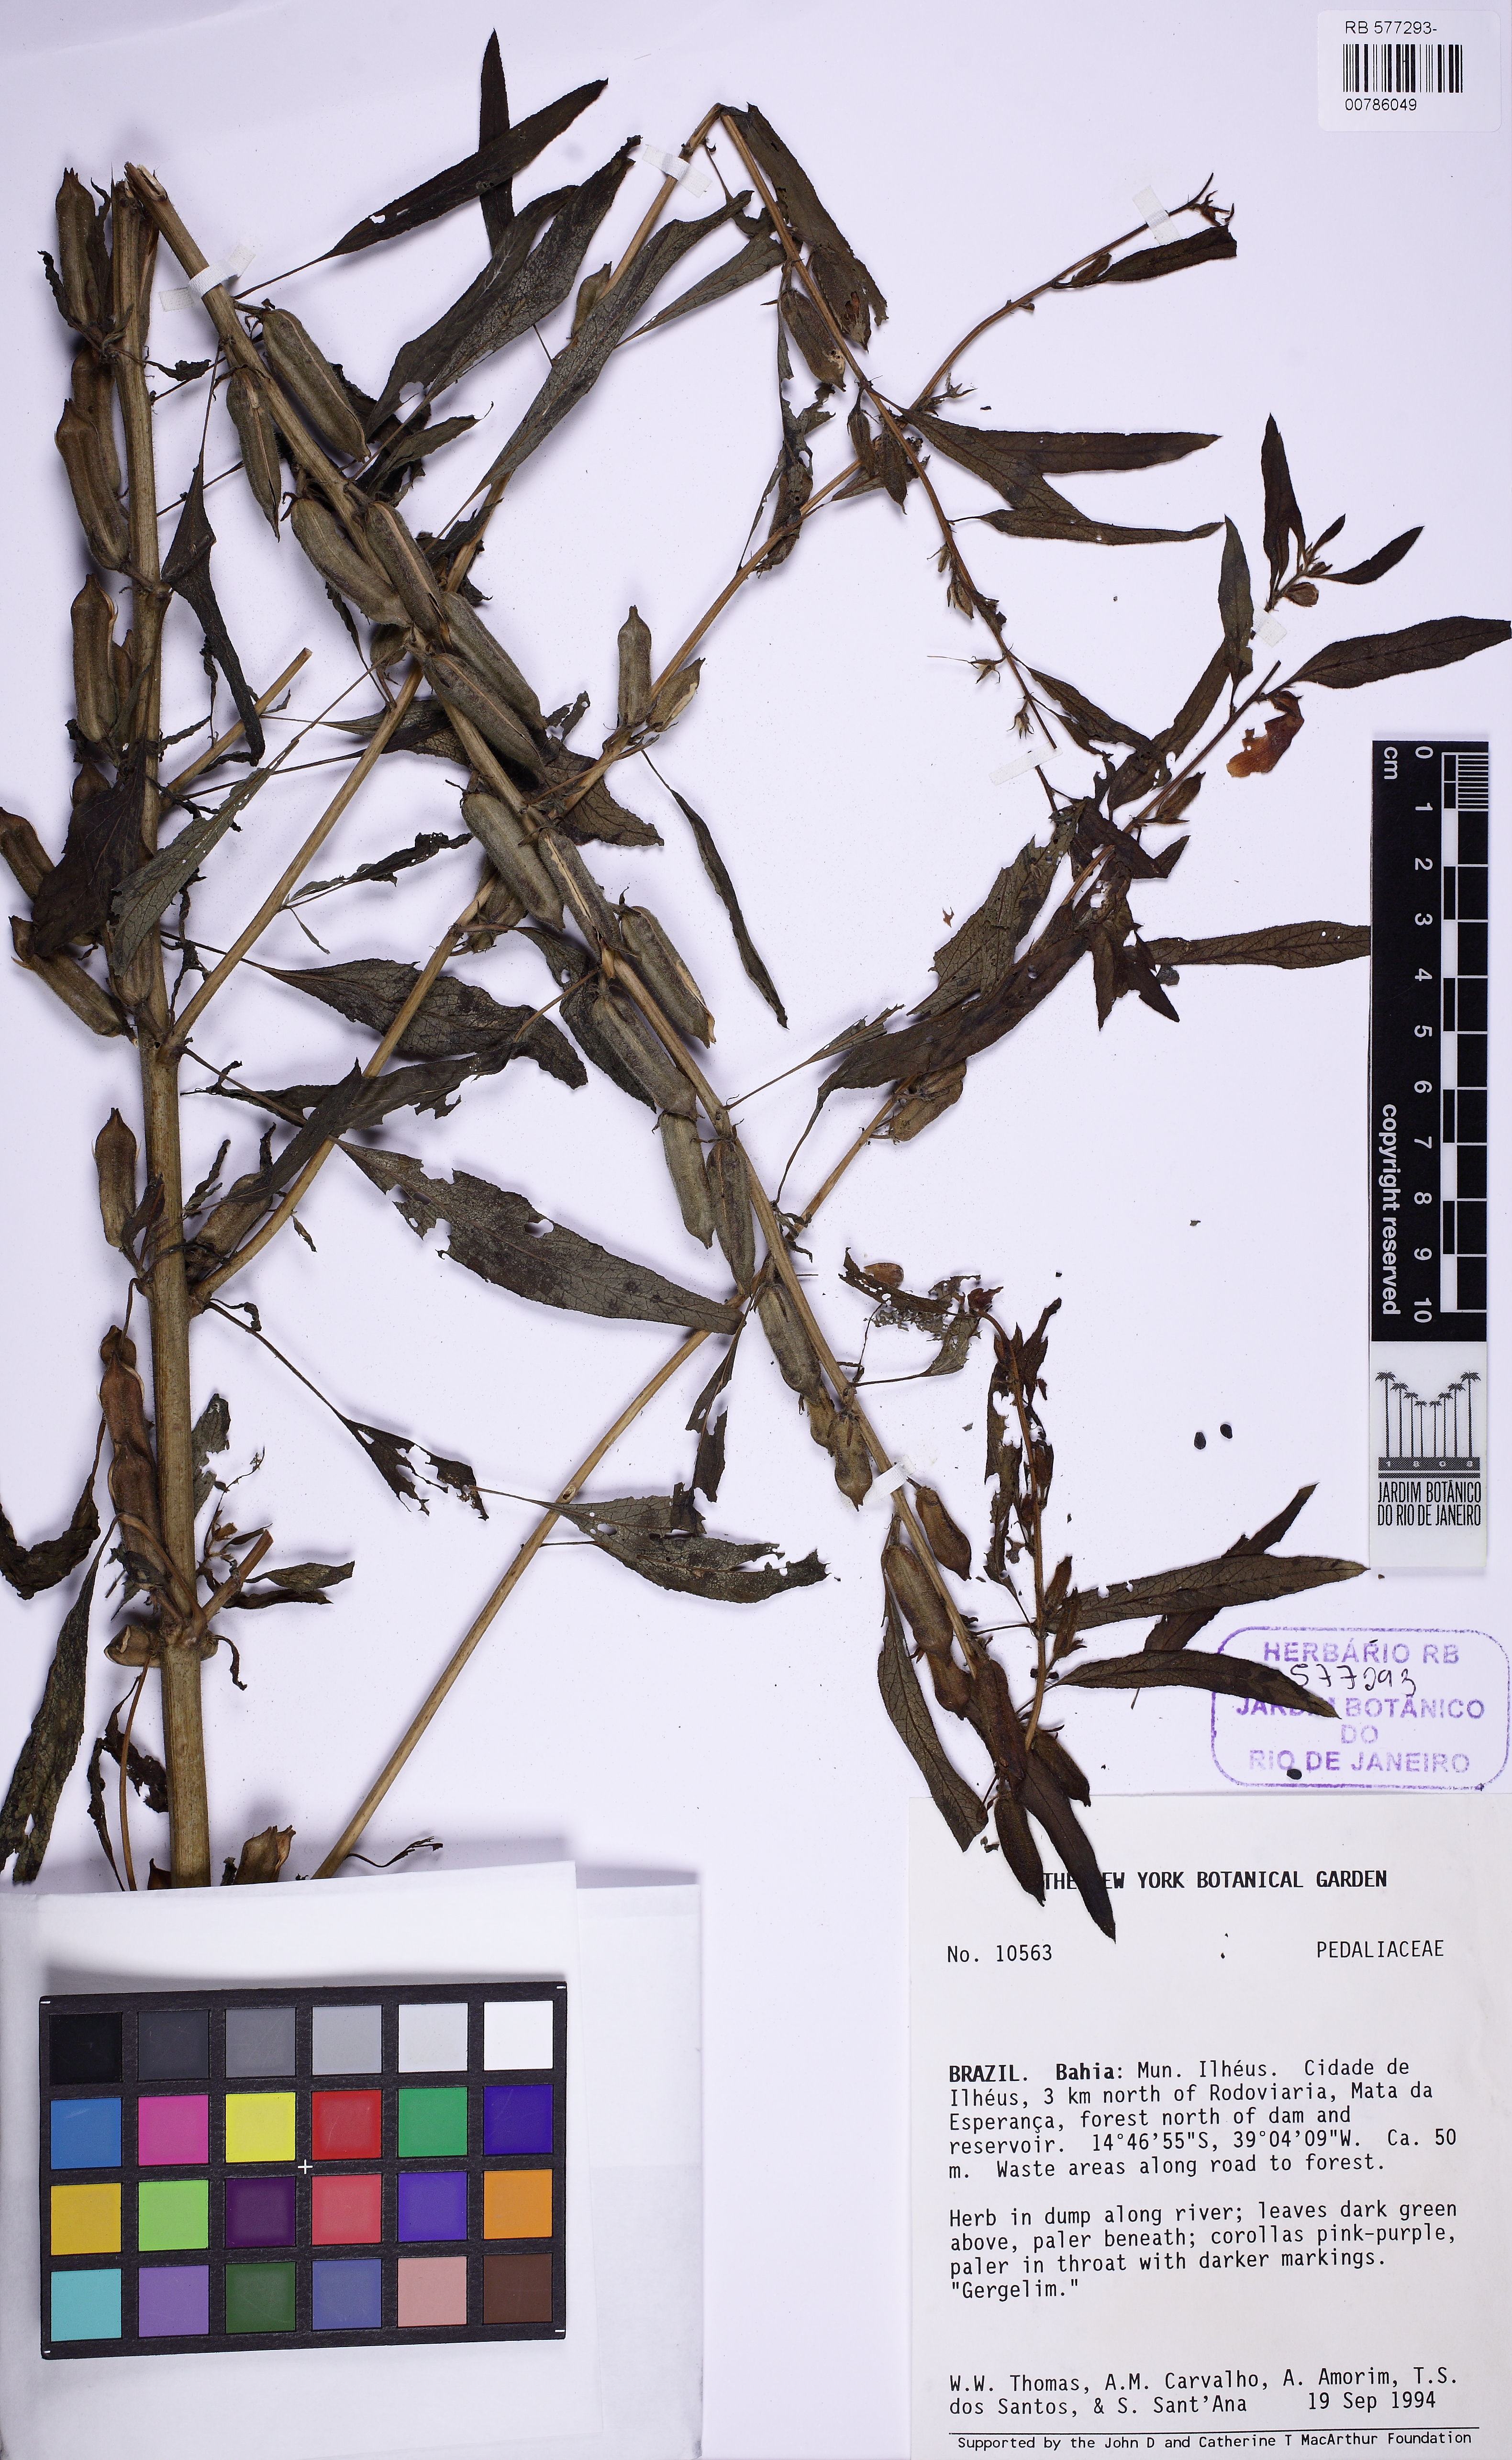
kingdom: Plantae
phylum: Tracheophyta
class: Magnoliopsida
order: Lamiales
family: Pedaliaceae
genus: Sesamum
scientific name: Sesamum
